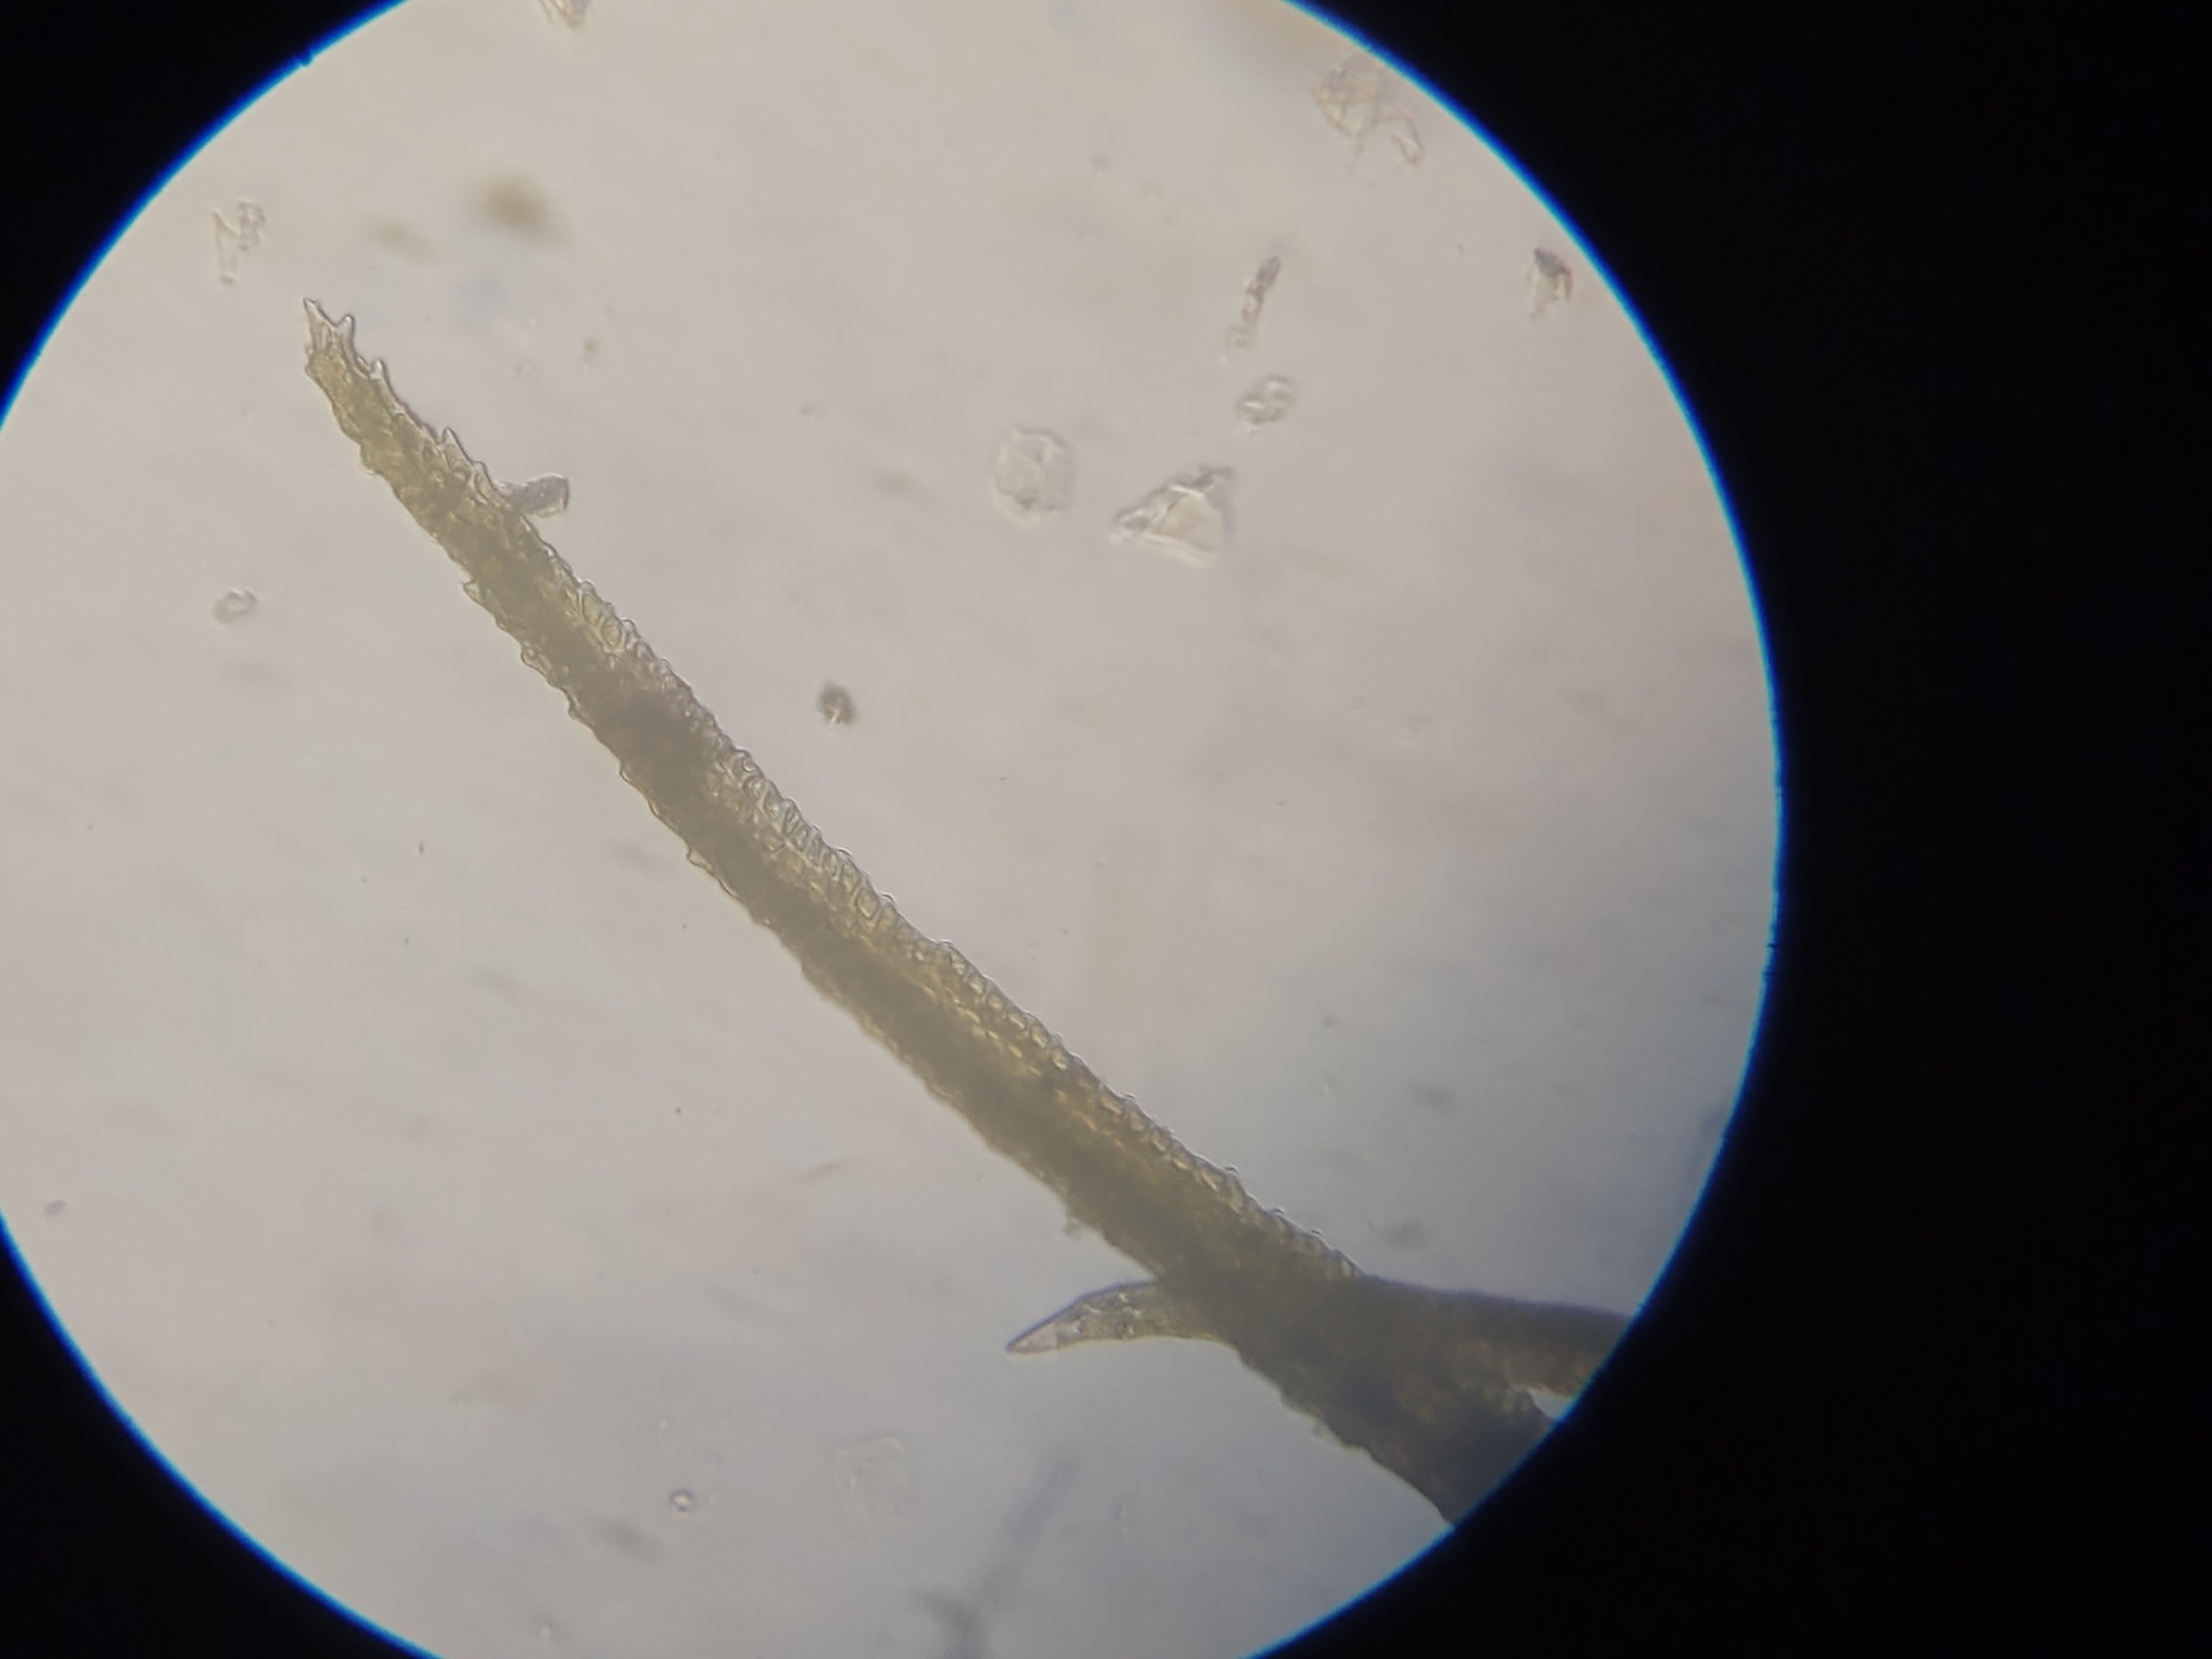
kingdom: Plantae
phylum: Bryophyta
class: Bryopsida
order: Dicranales
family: Dicranaceae
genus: Orthodicranum
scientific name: Orthodicranum montanum
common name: Tæt tyndvinge
